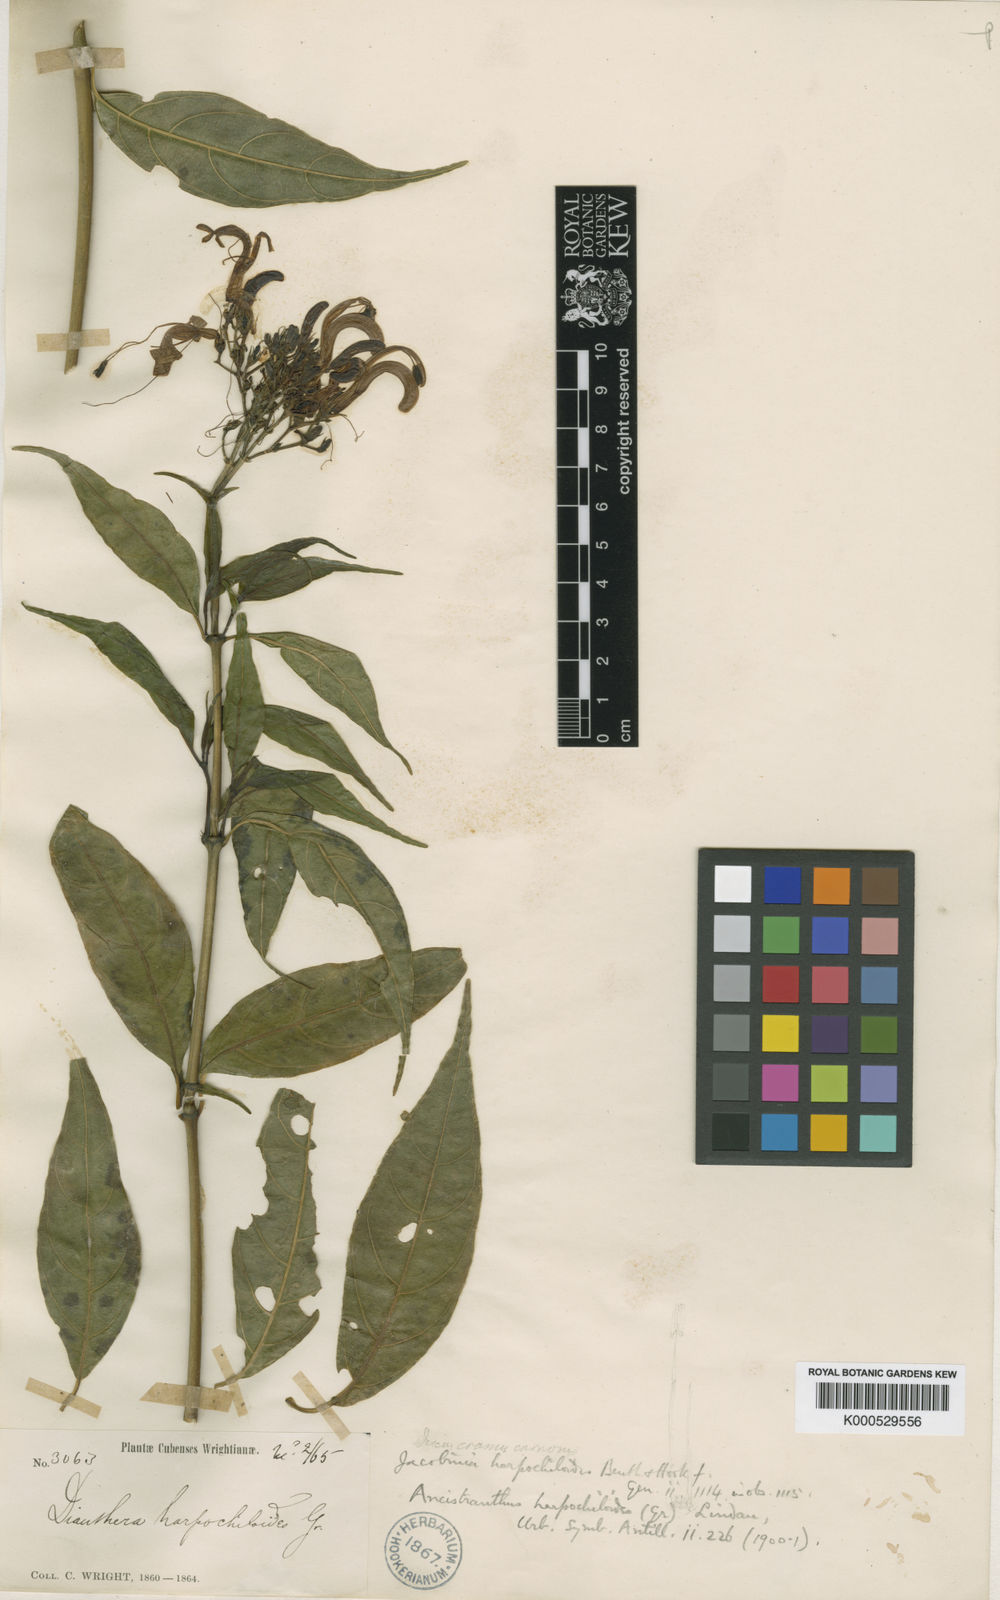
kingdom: Plantae
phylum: Tracheophyta
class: Magnoliopsida
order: Lamiales
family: Acanthaceae
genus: Ancistranthus
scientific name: Ancistranthus harpochiloides
